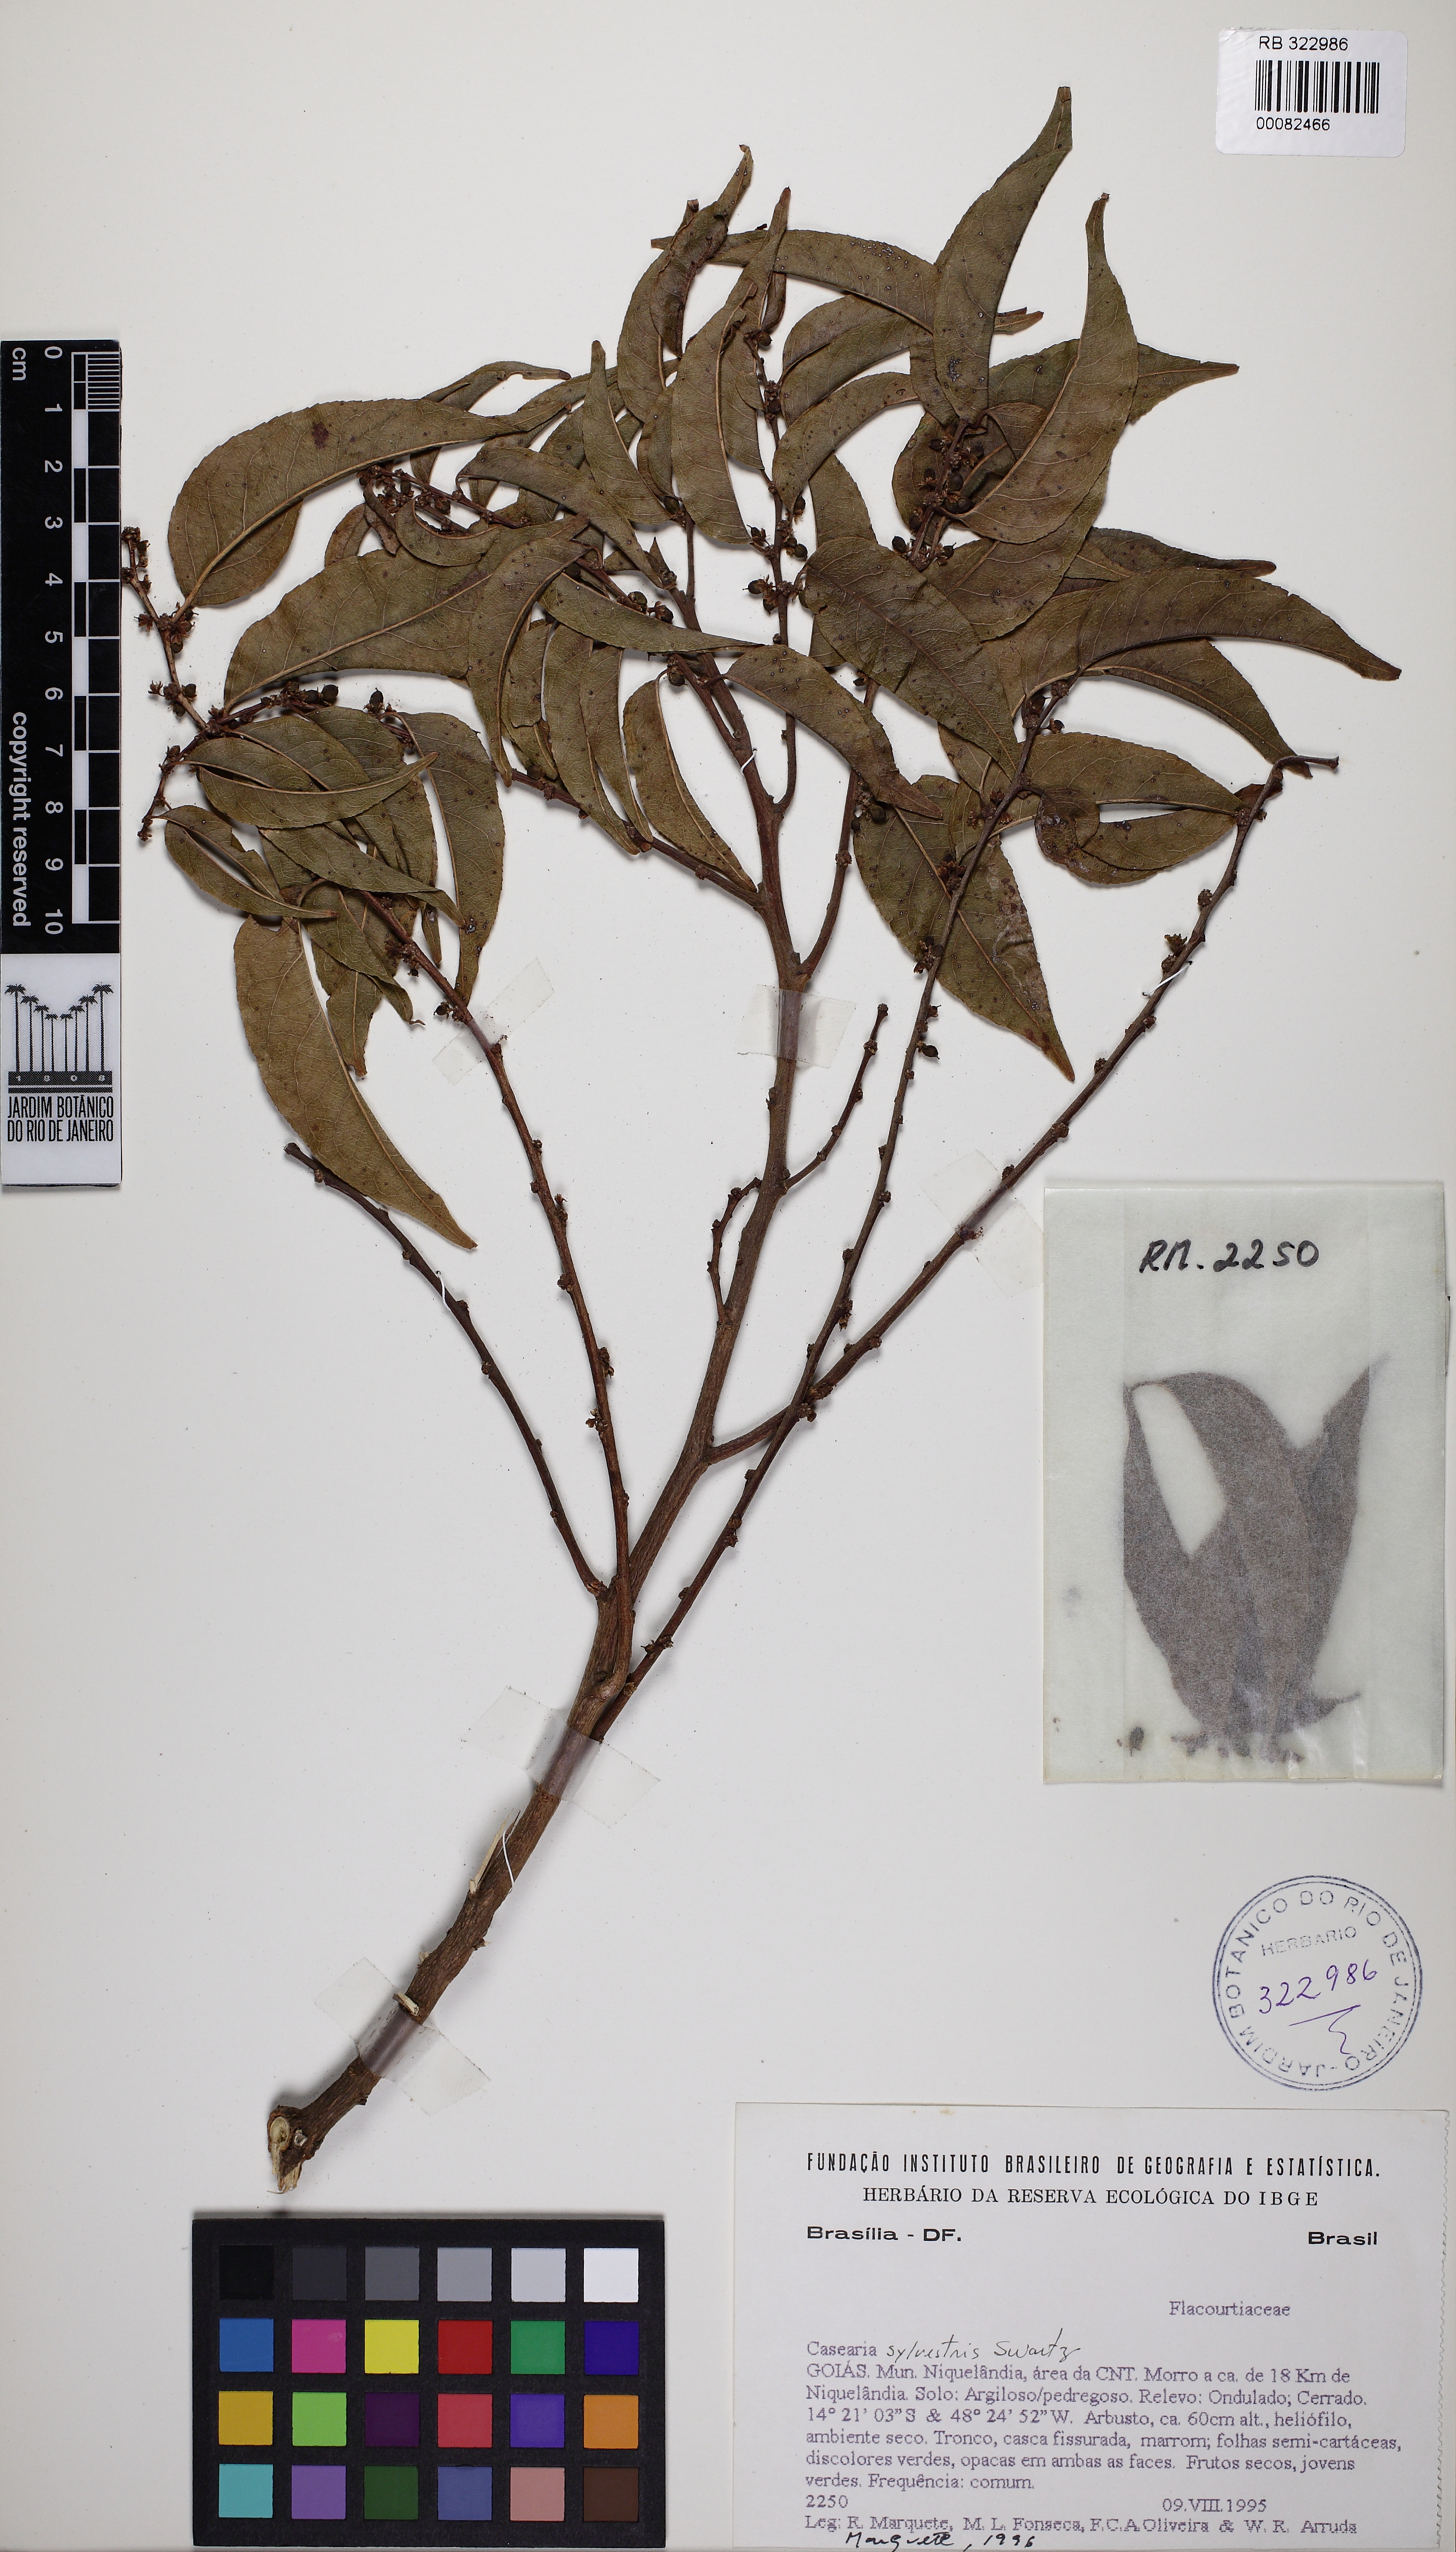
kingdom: Plantae
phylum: Tracheophyta
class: Magnoliopsida
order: Malpighiales
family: Salicaceae
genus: Casearia
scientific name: Casearia sylvestris
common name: Wild sage
